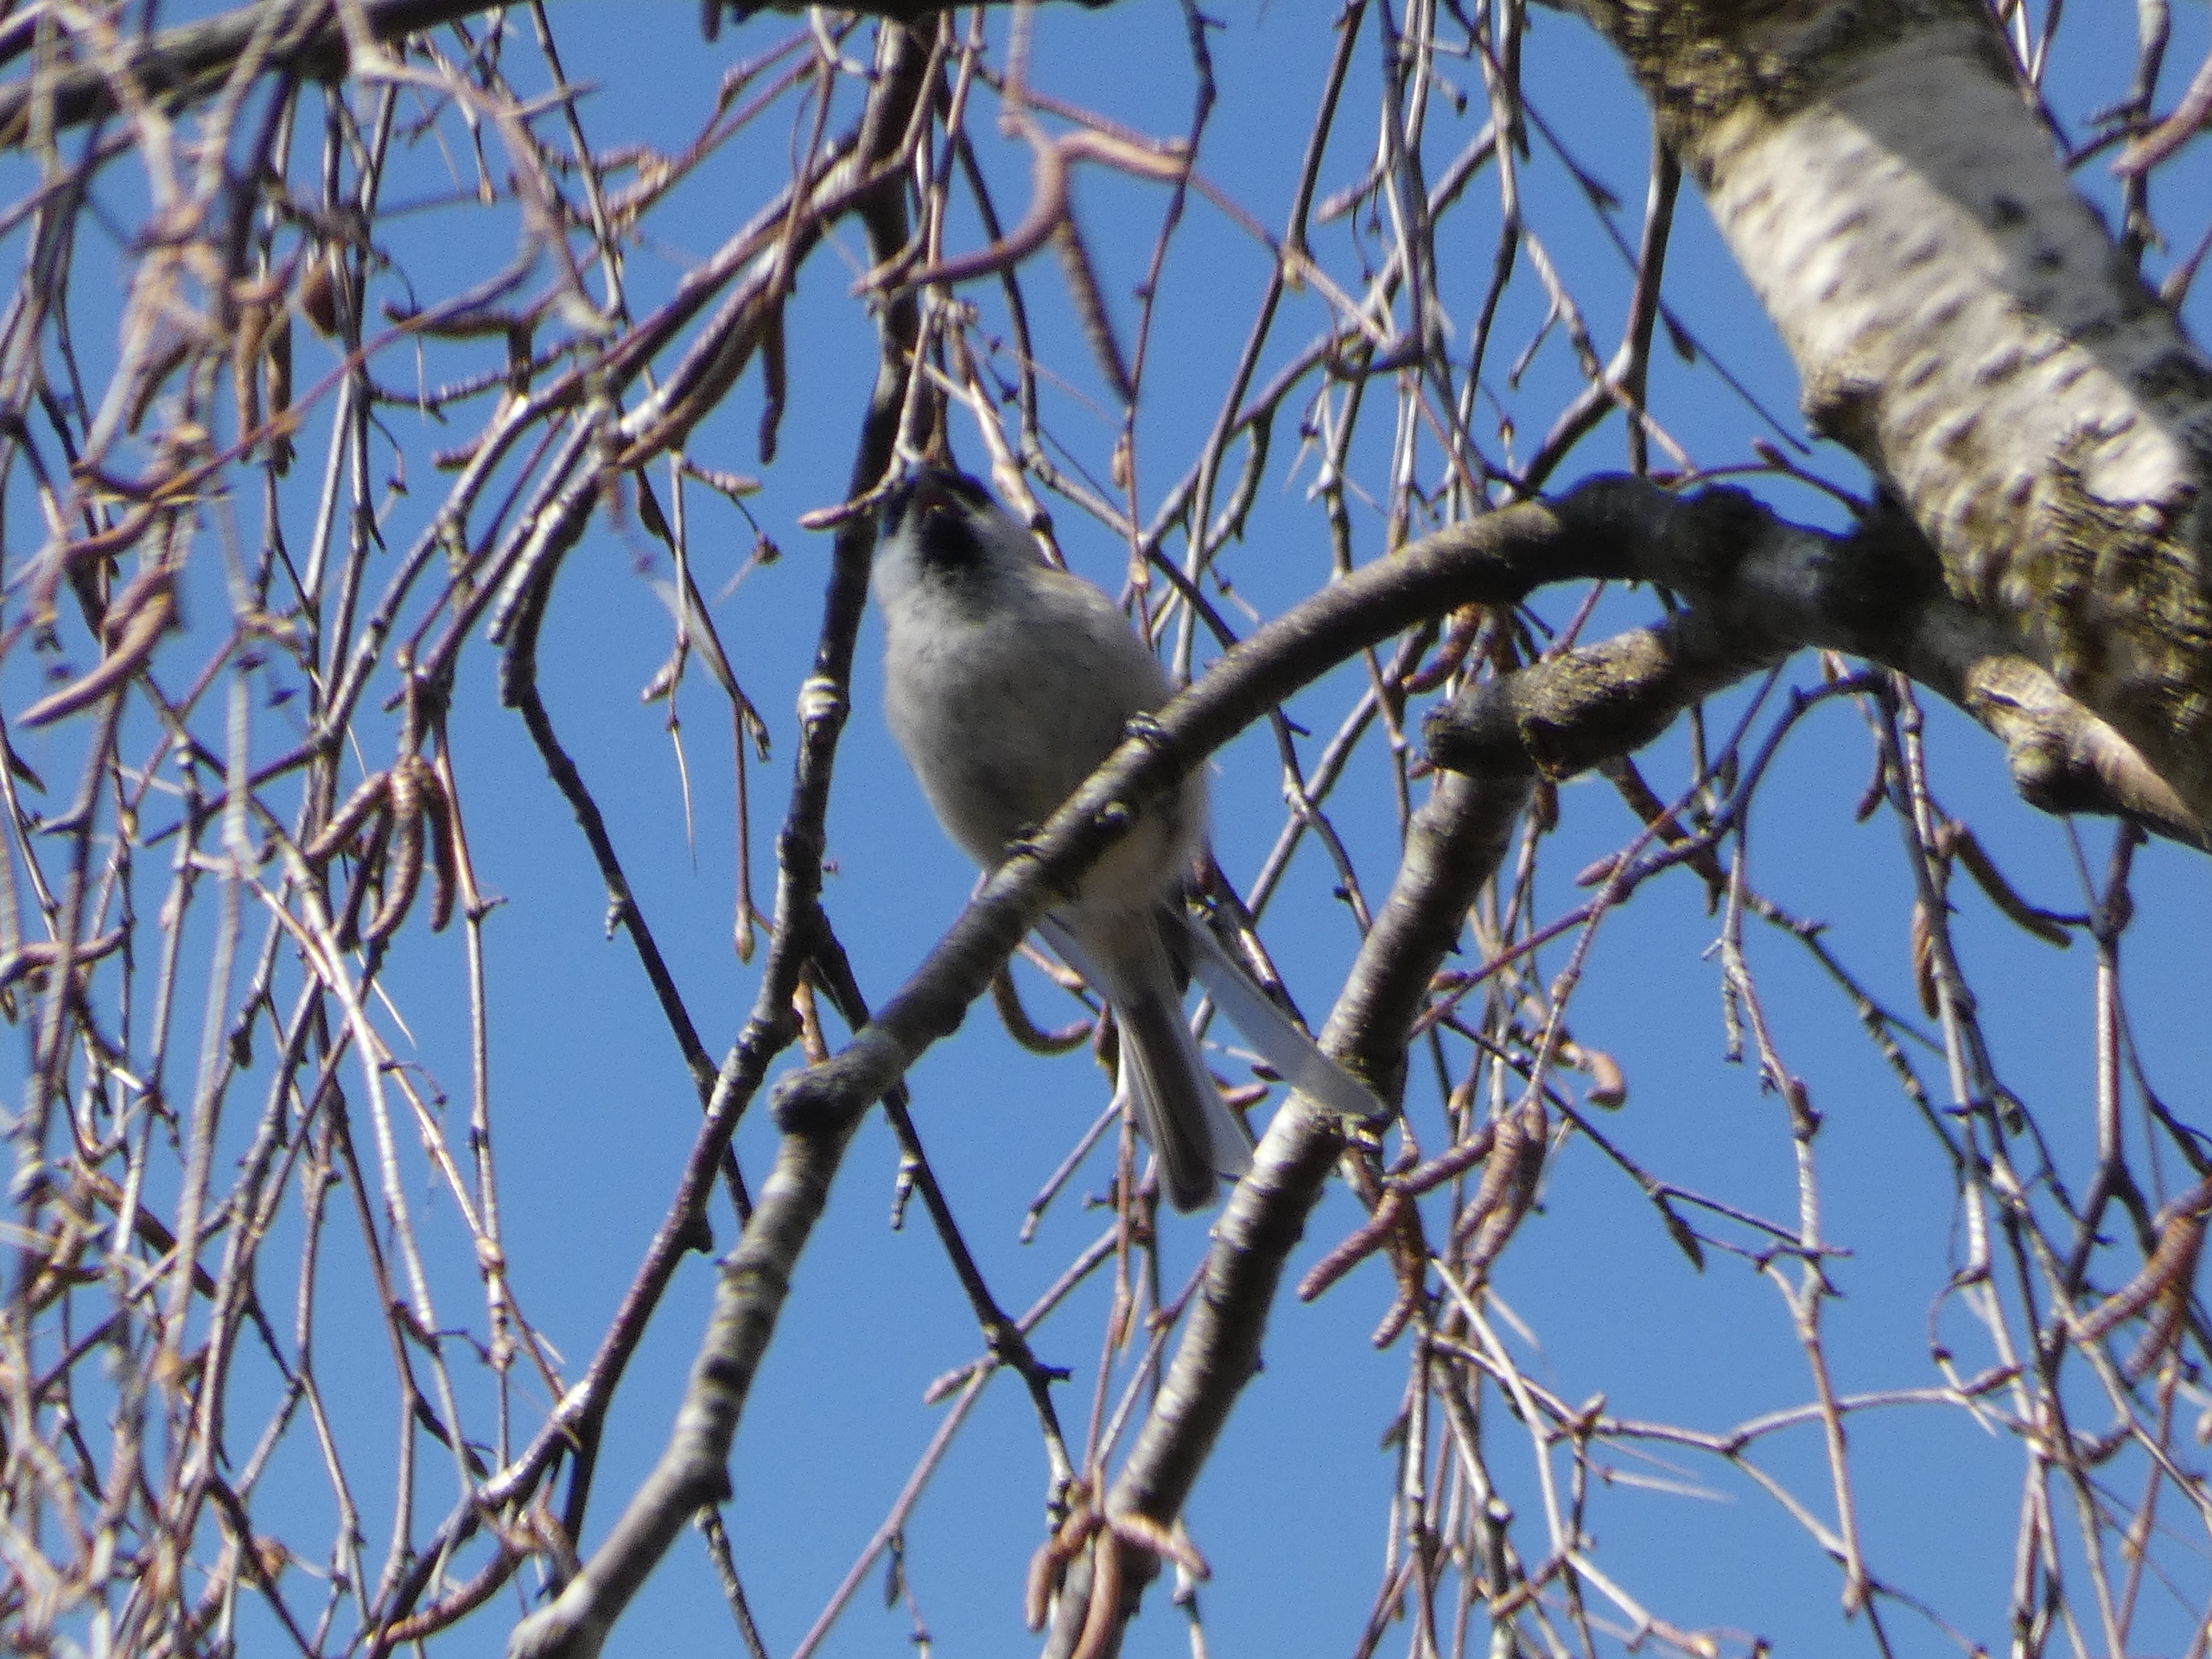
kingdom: Animalia
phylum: Chordata
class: Aves
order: Passeriformes
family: Paridae
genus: Poecile
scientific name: Poecile palustris
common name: Sumpmejse
